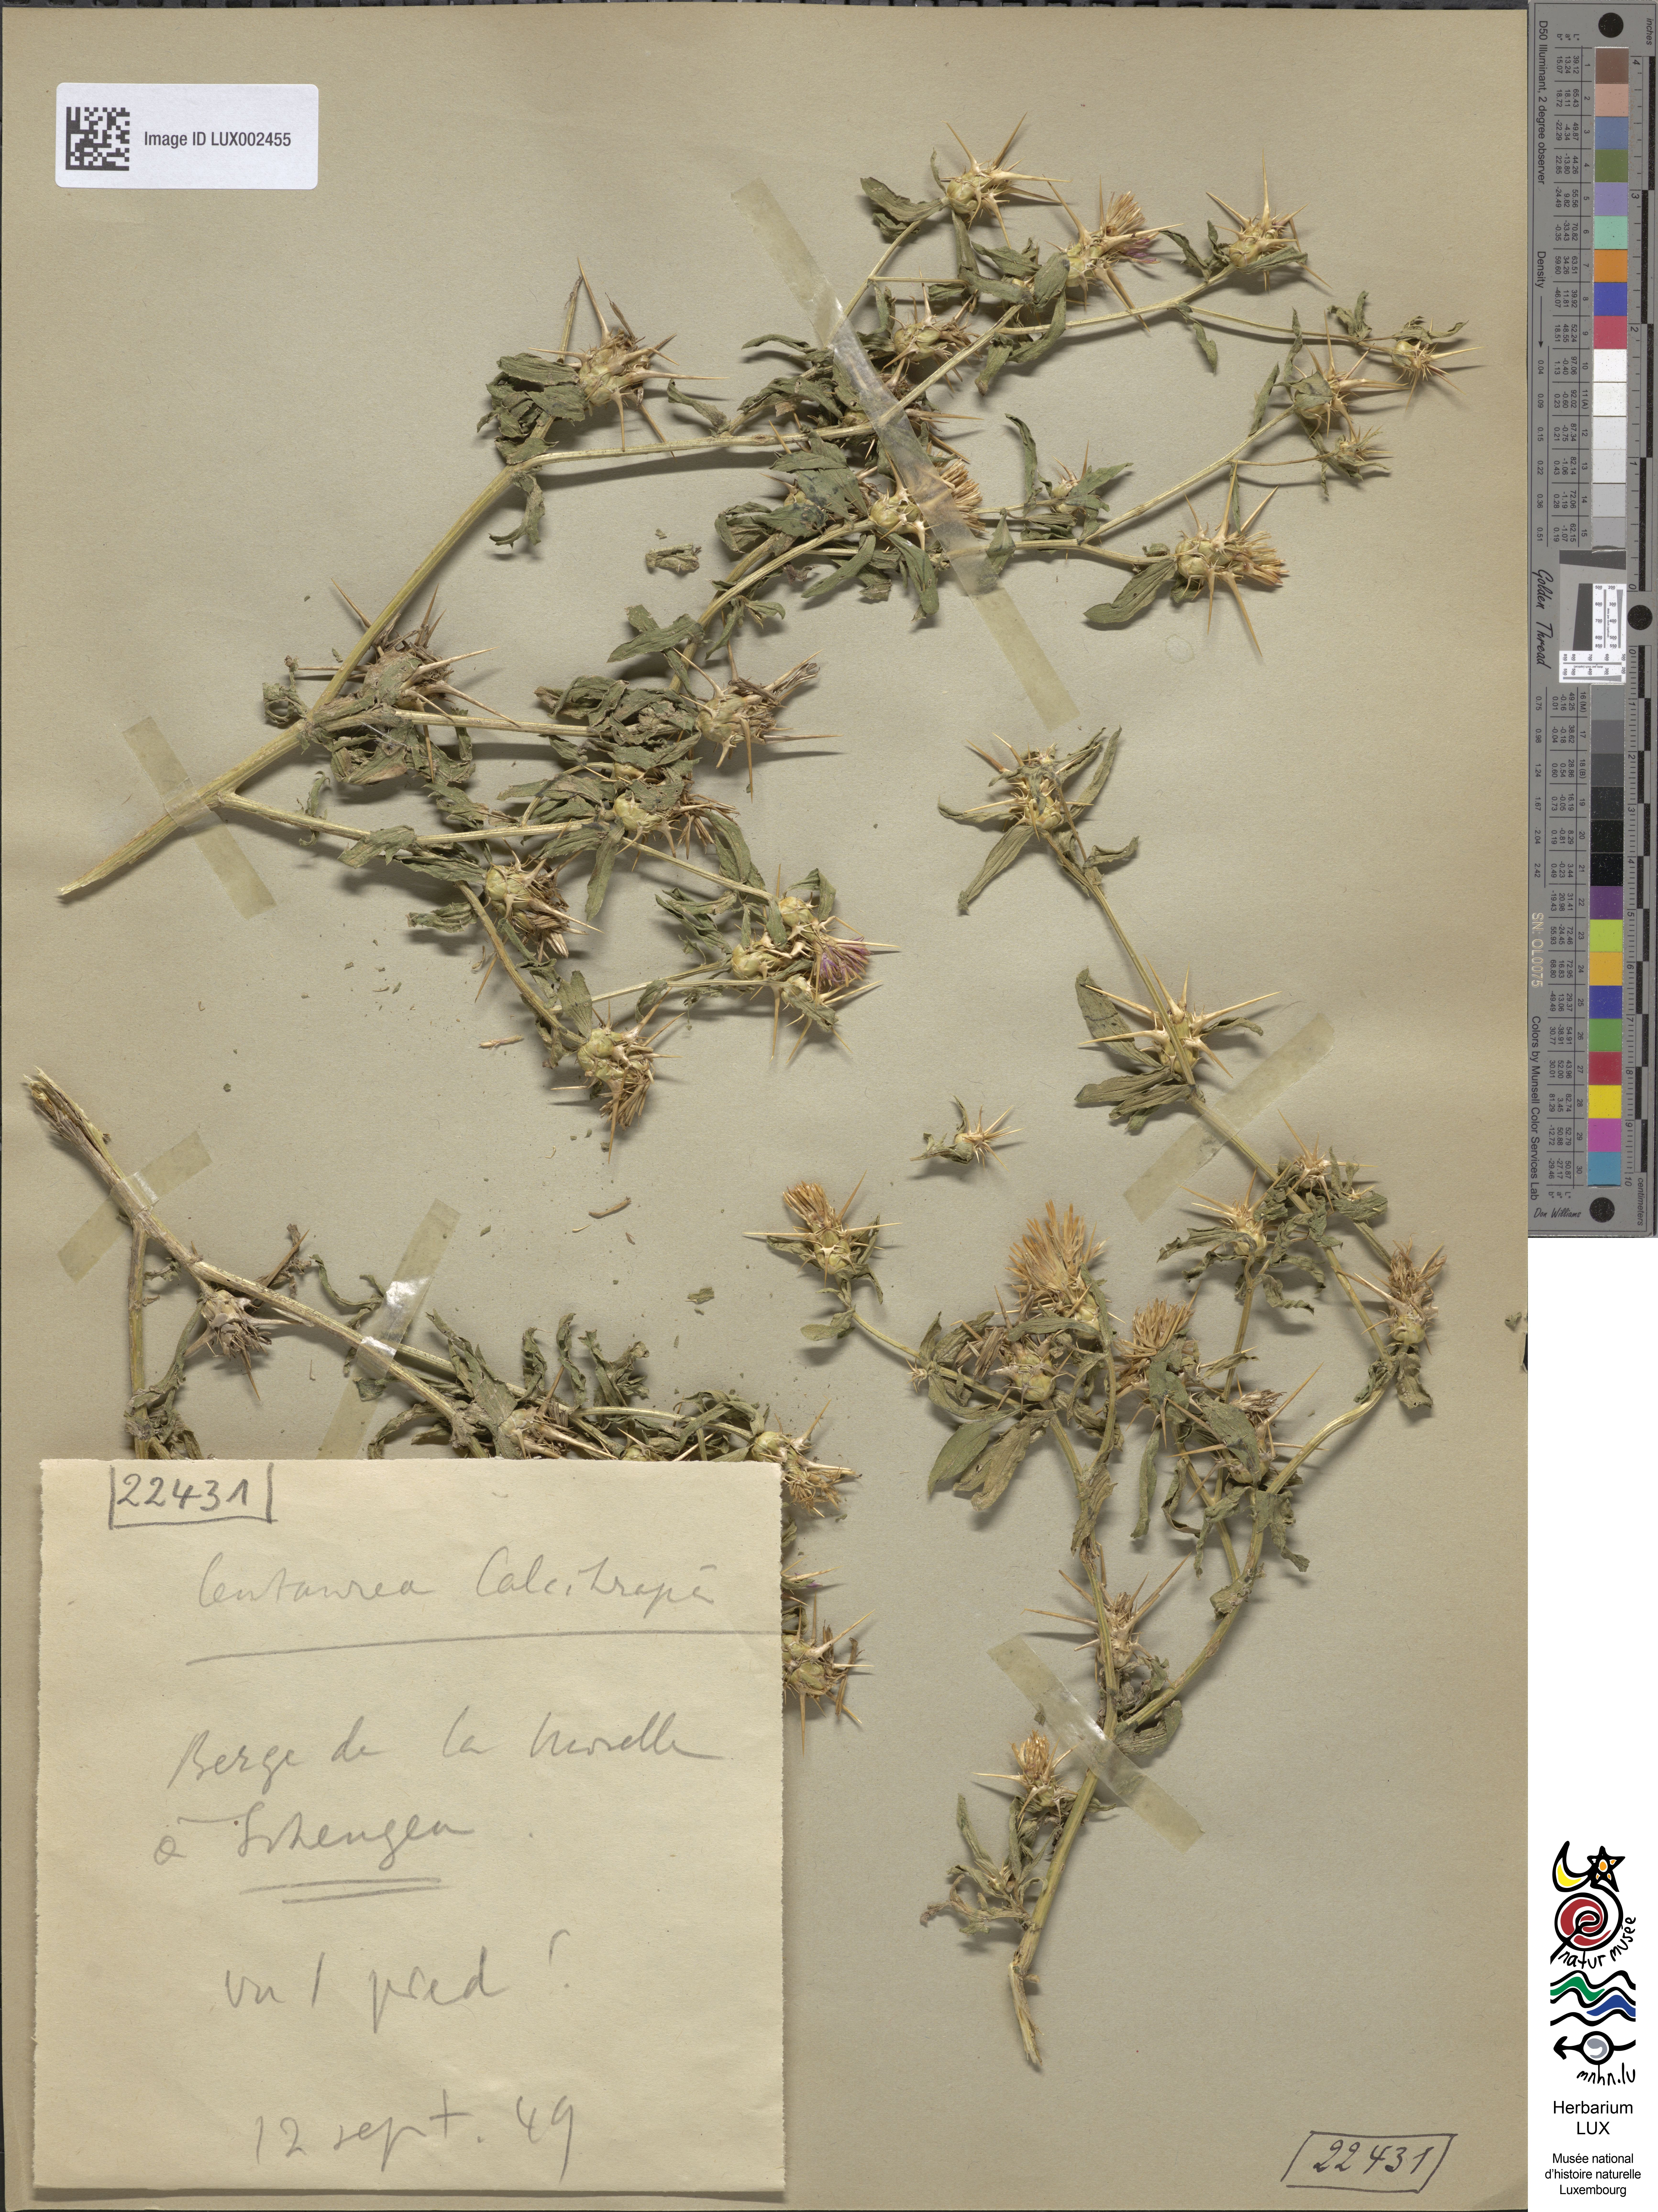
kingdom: Plantae
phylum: Tracheophyta
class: Magnoliopsida
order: Asterales
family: Asteraceae
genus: Centaurea
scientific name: Centaurea calcitrapa
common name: Red star-thistle
